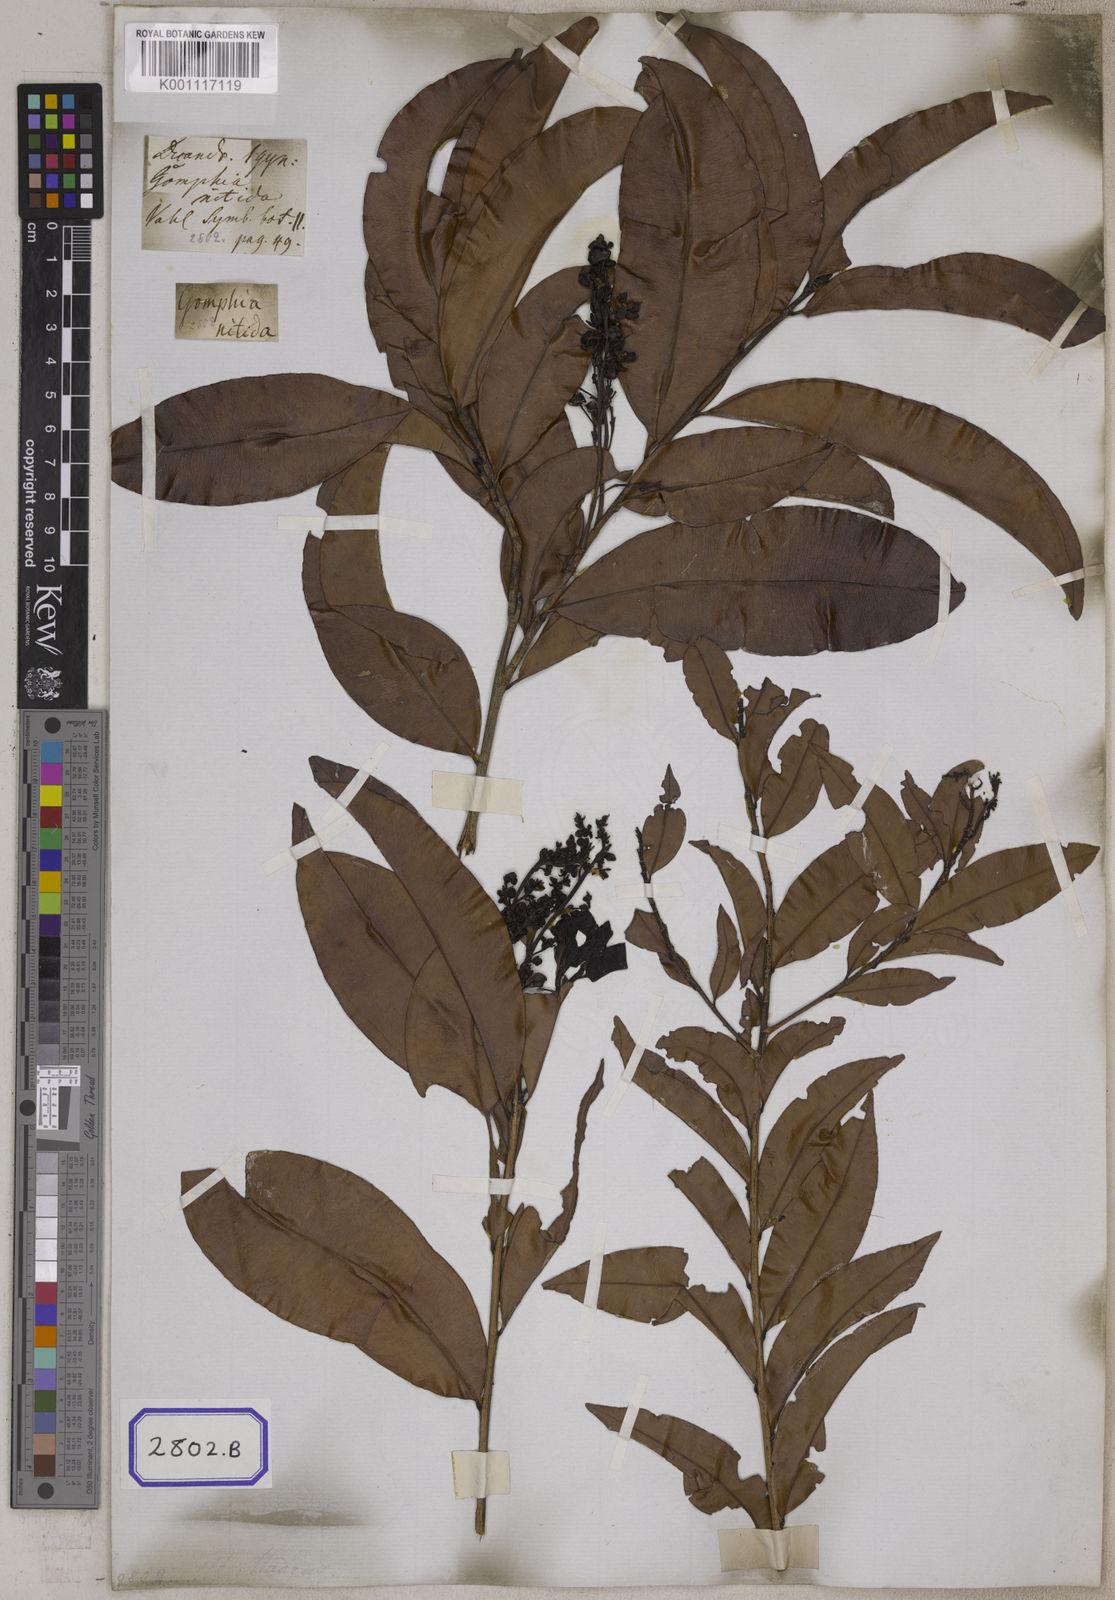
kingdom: Plantae
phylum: Tracheophyta
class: Magnoliopsida
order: Malpighiales
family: Ochnaceae
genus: Gomphia
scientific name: Gomphia serrata
